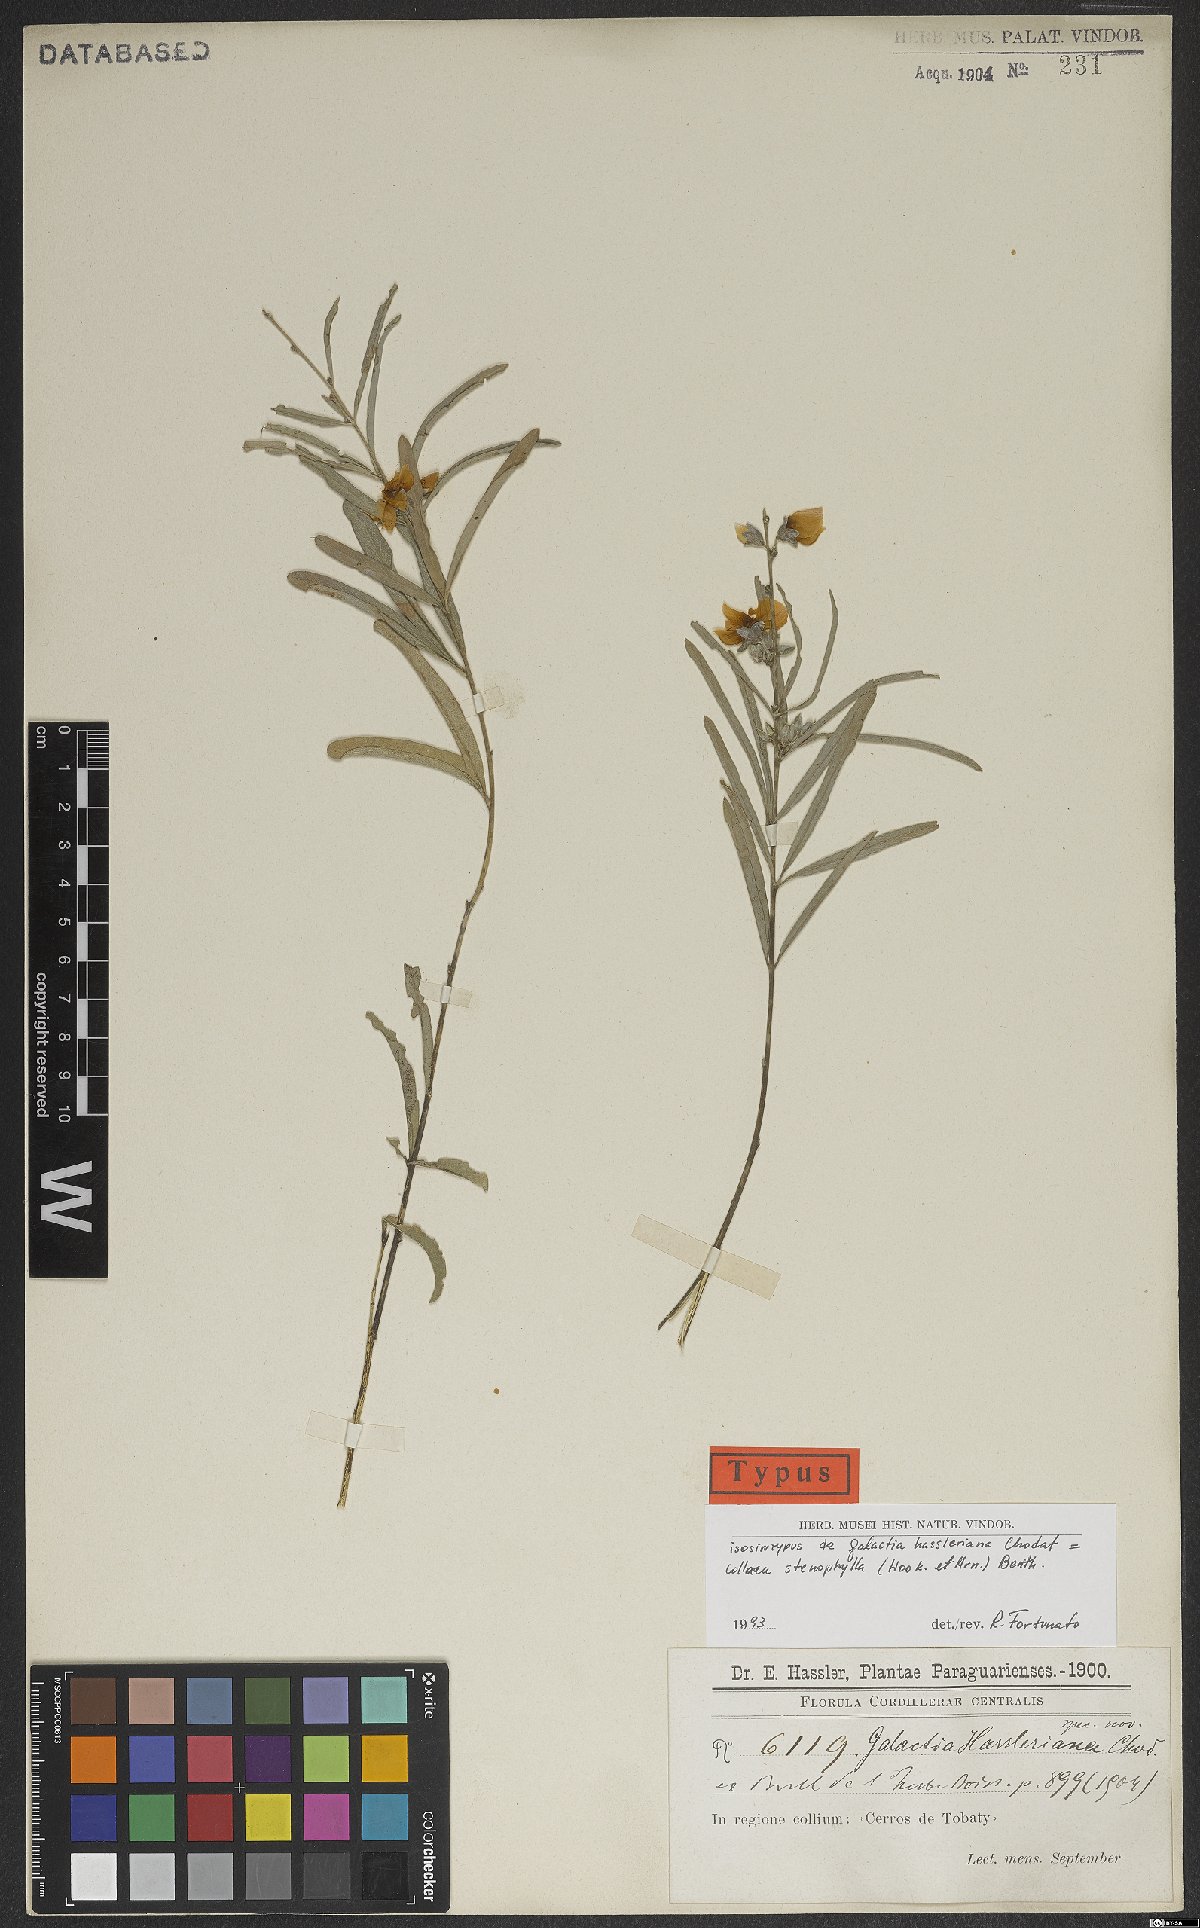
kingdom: Plantae
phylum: Tracheophyta
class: Magnoliopsida
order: Fabales
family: Fabaceae
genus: Collaea
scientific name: Collaea stenophylla
